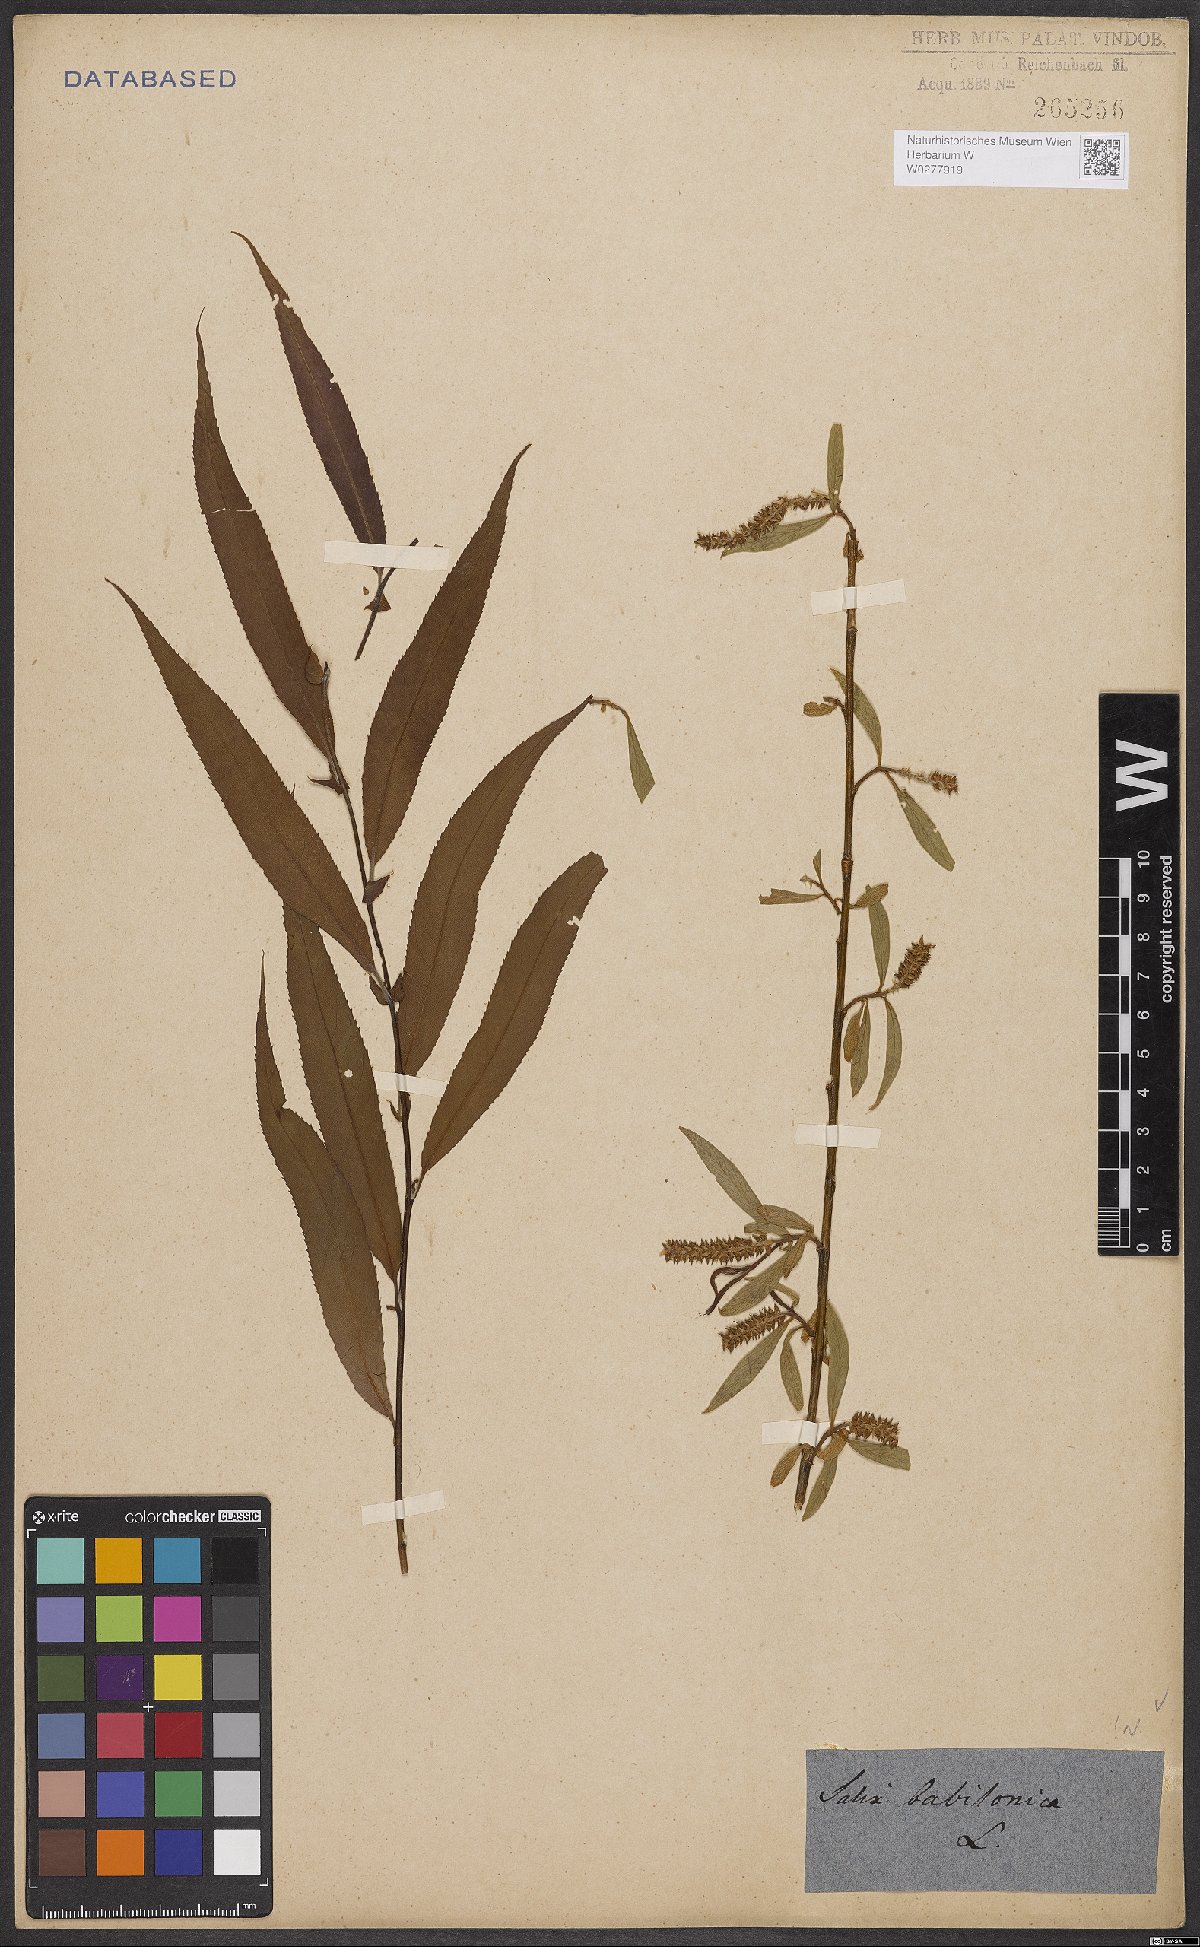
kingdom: Plantae
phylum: Tracheophyta
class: Magnoliopsida
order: Malpighiales
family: Salicaceae
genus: Salix
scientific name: Salix babylonica
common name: Weeping willow
